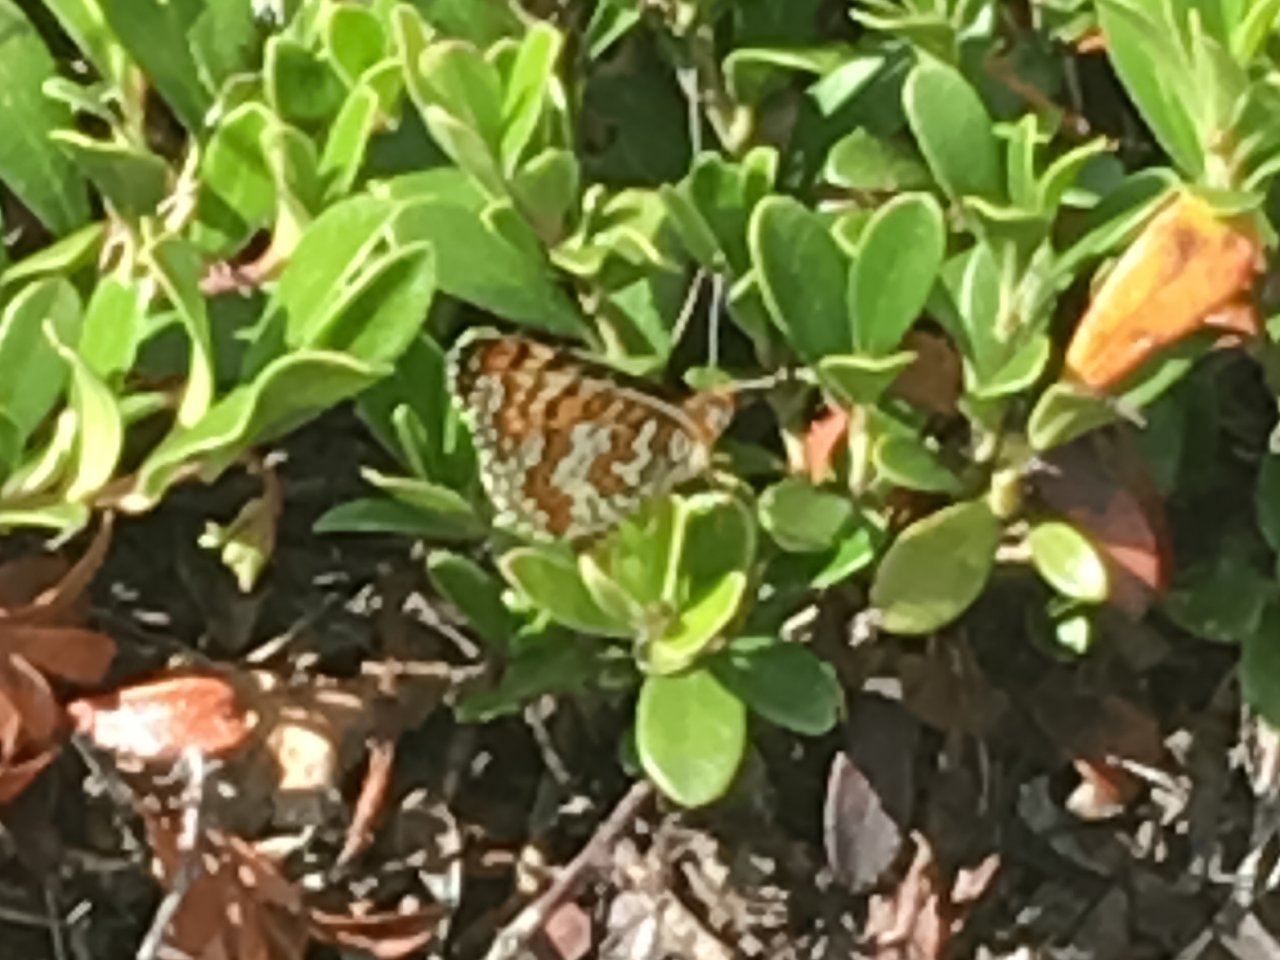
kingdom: Animalia
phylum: Arthropoda
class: Insecta
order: Lepidoptera
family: Nymphalidae
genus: Poladryas
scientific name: Poladryas minuta
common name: Arachne Checkerspot
